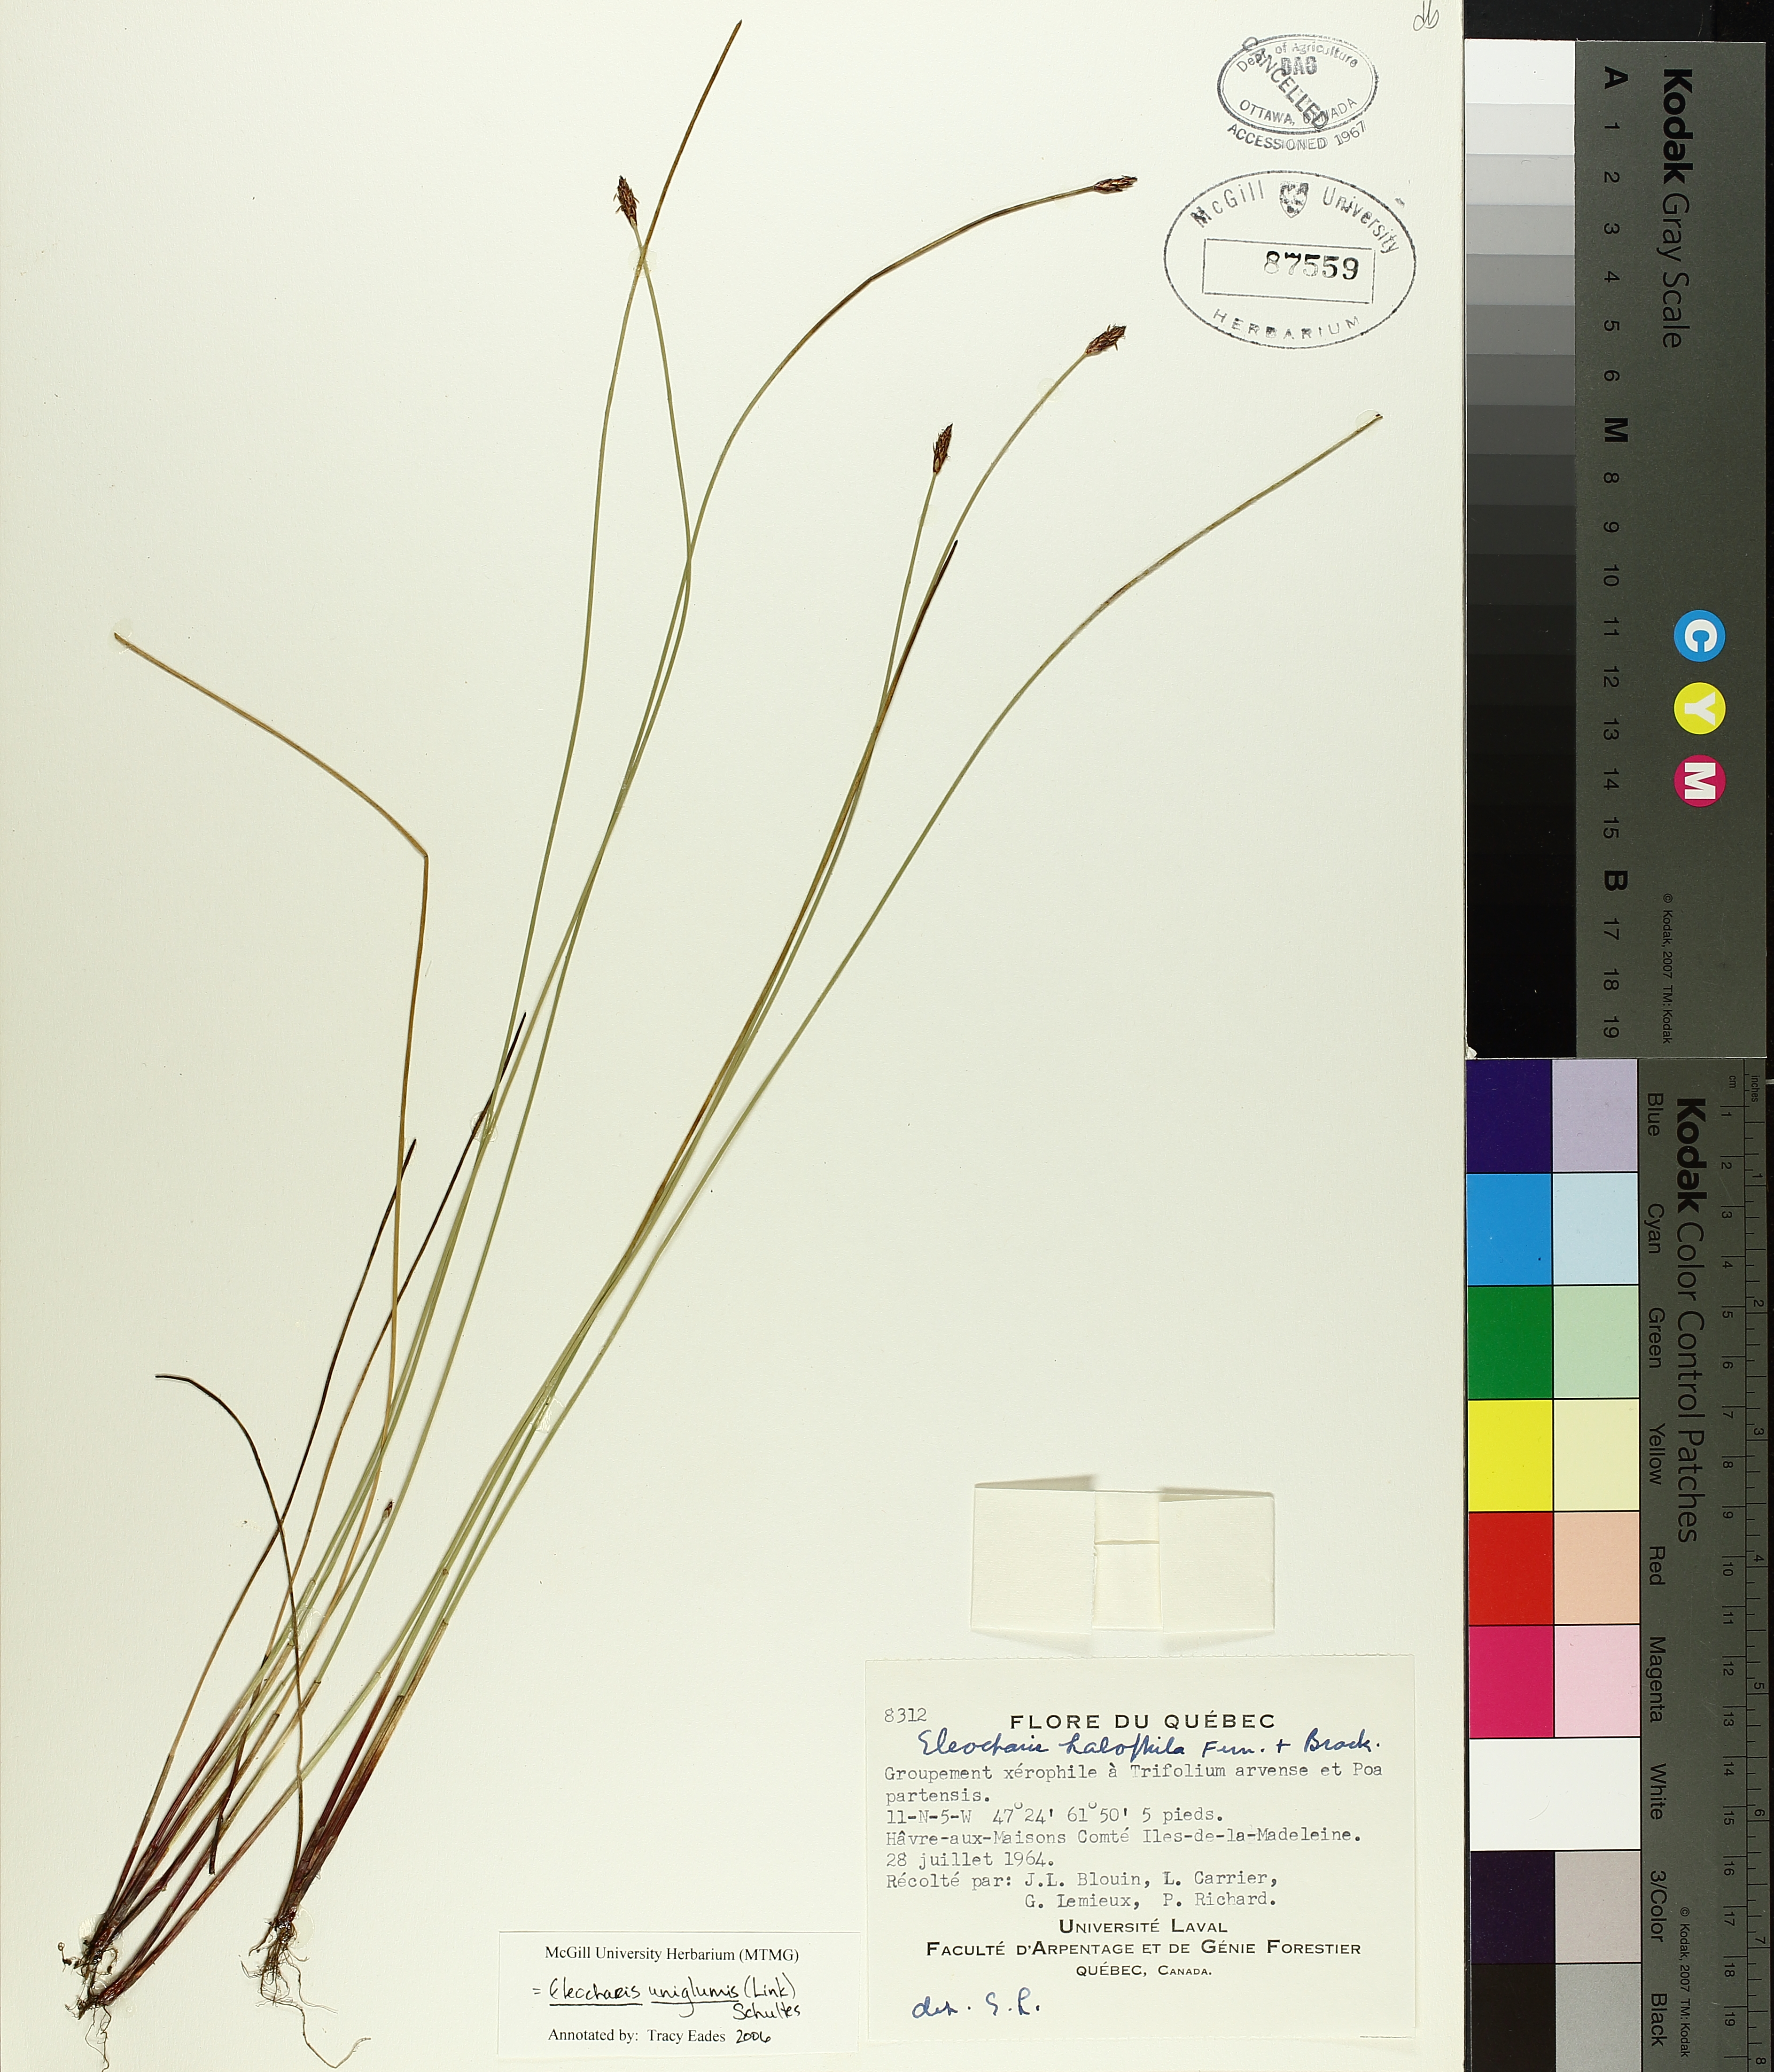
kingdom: Plantae
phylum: Tracheophyta
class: Liliopsida
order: Poales
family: Cyperaceae
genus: Eleocharis
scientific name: Eleocharis uniglumis
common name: Slender spike-rush
